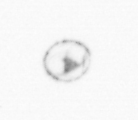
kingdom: Animalia
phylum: Arthropoda
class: Copepoda
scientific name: Copepoda
